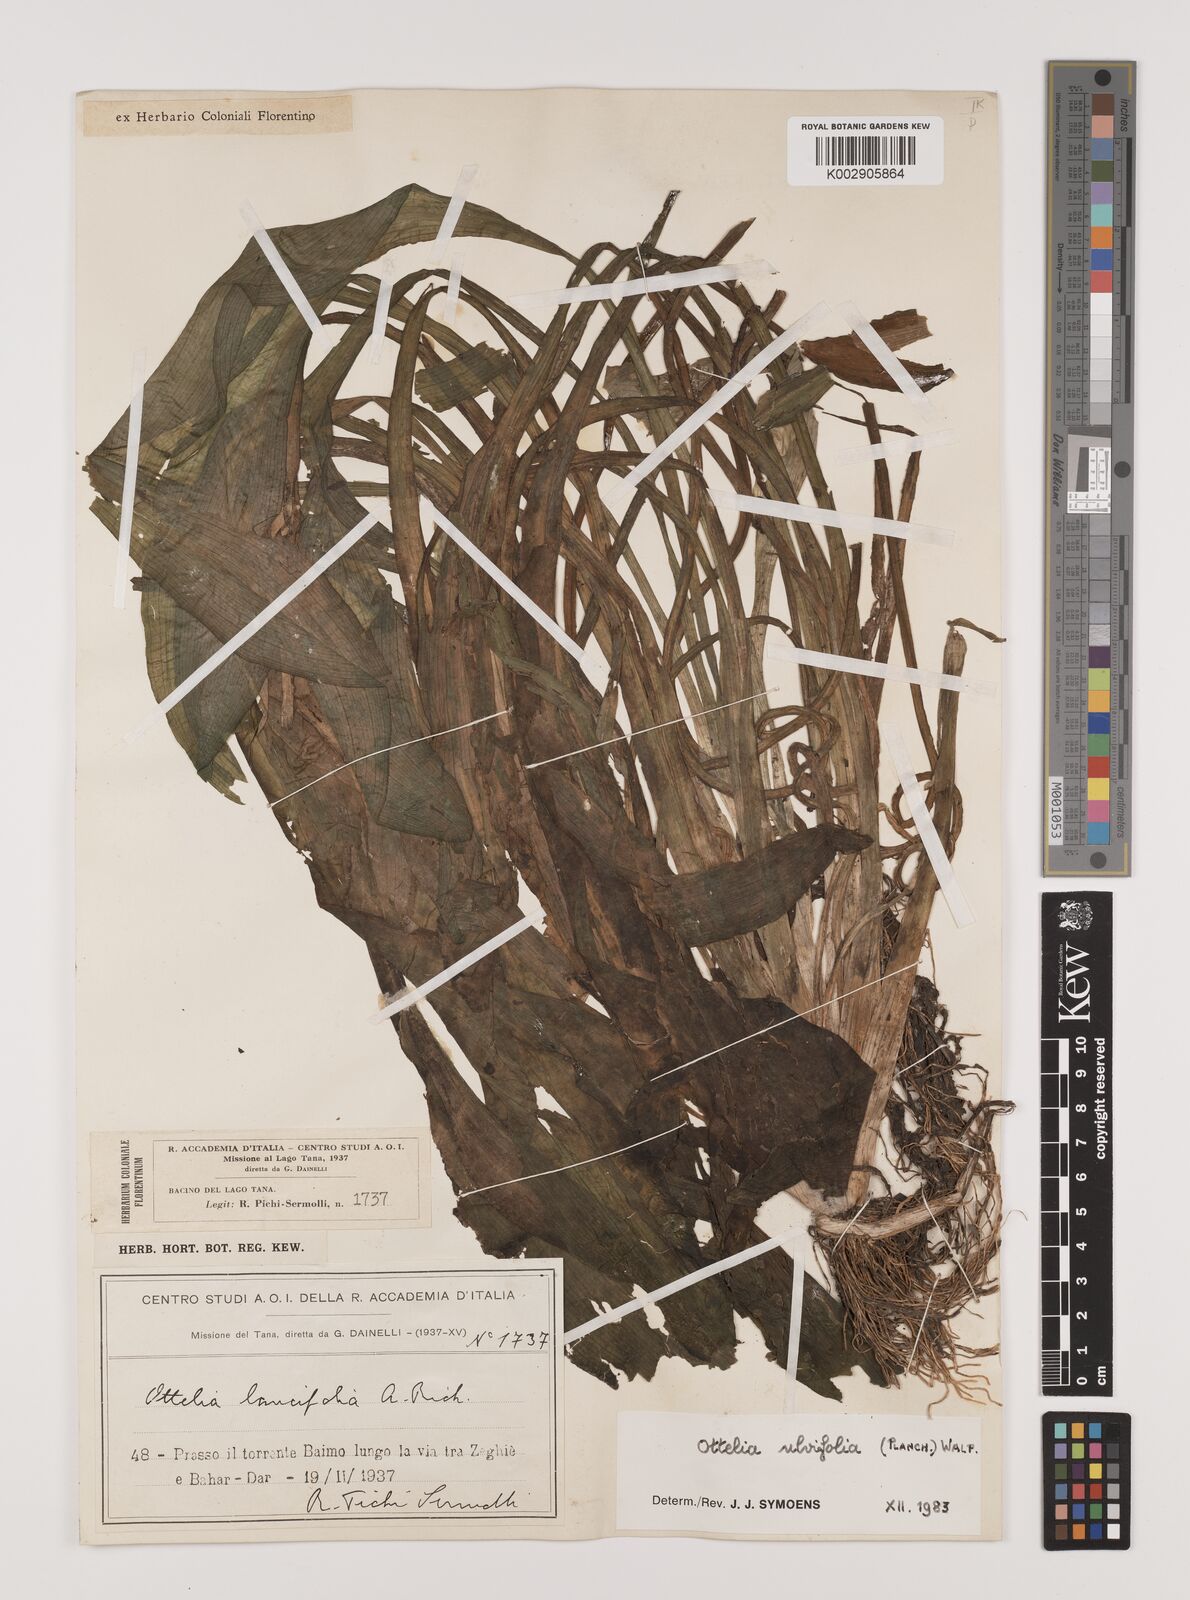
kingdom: Plantae
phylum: Tracheophyta
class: Liliopsida
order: Alismatales
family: Hydrocharitaceae
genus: Ottelia
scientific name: Ottelia ulvifolia
